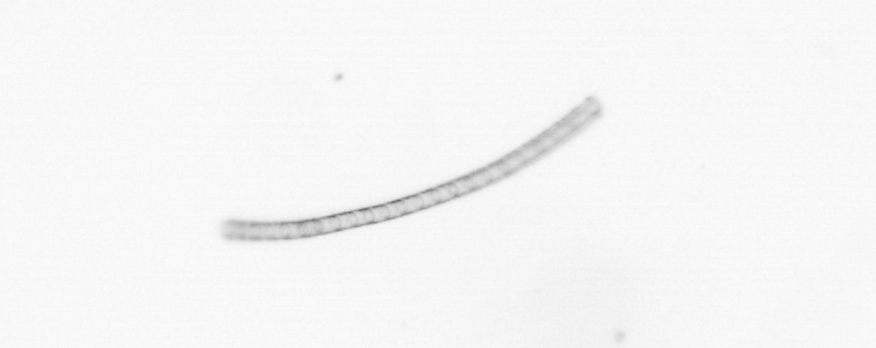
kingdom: Chromista
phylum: Ochrophyta
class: Bacillariophyceae
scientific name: Bacillariophyceae
